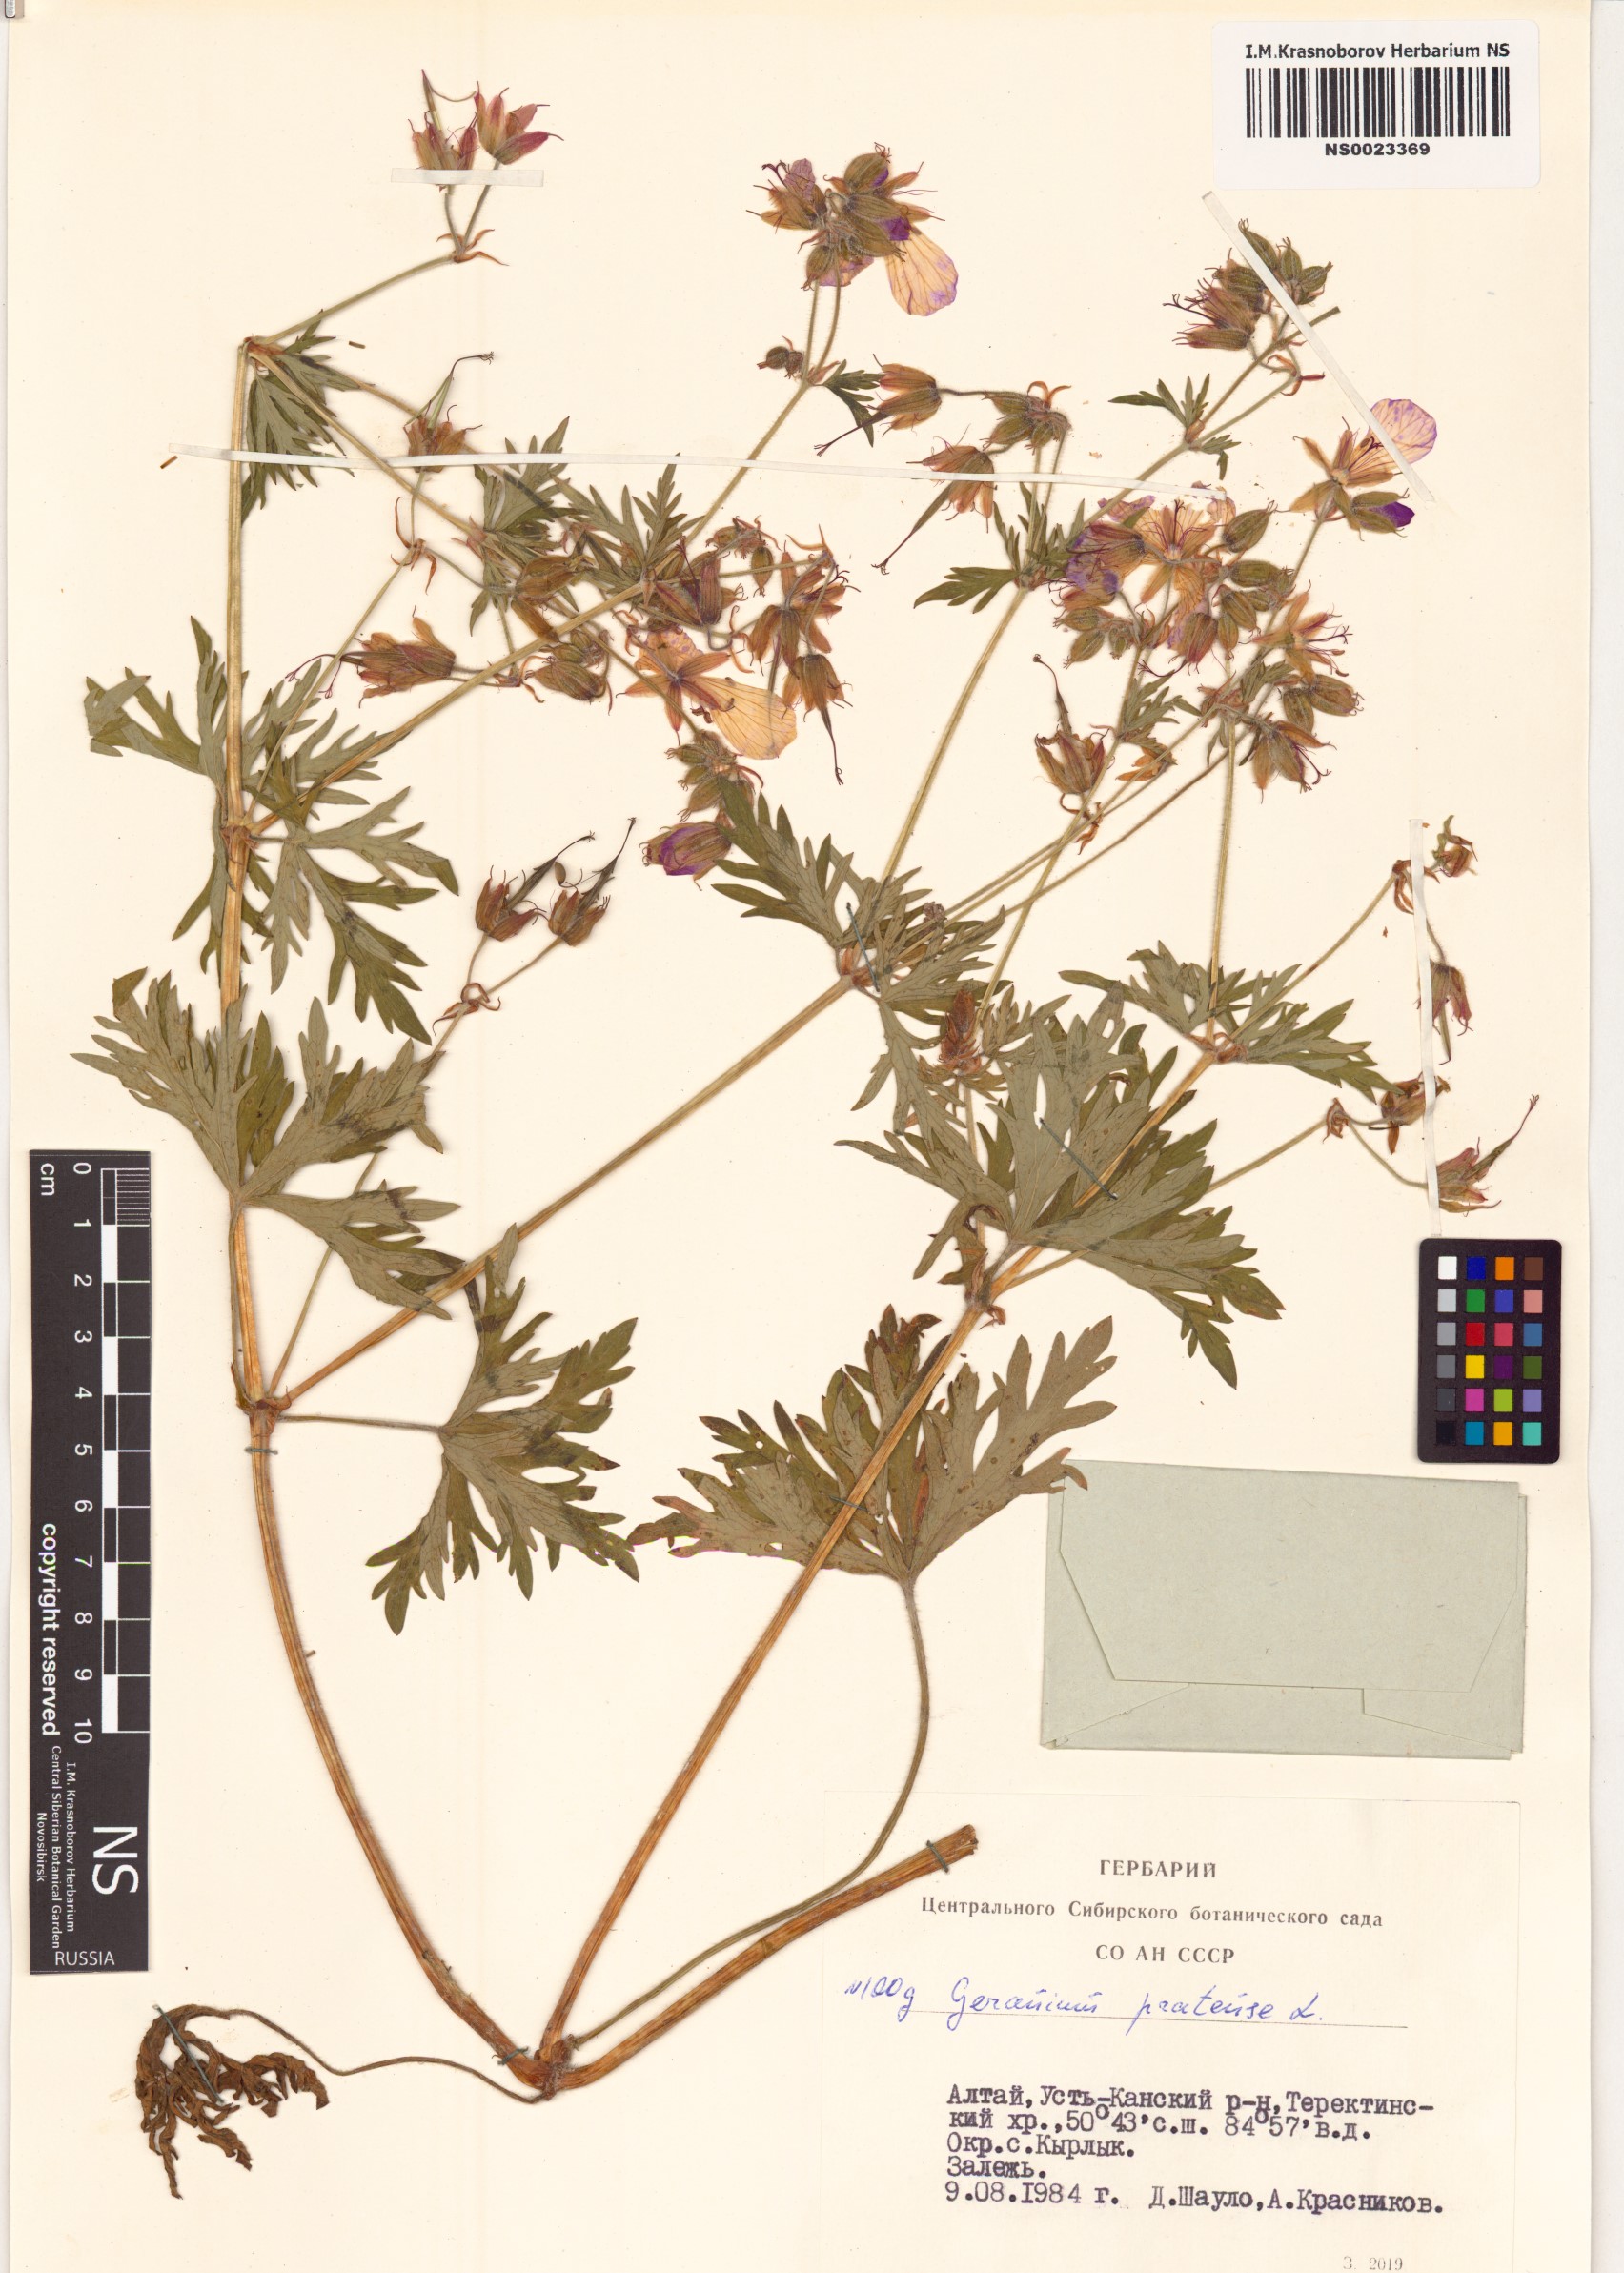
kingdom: Plantae
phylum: Tracheophyta
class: Magnoliopsida
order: Geraniales
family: Geraniaceae
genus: Geranium
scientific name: Geranium pratense
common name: Meadow crane's-bill
